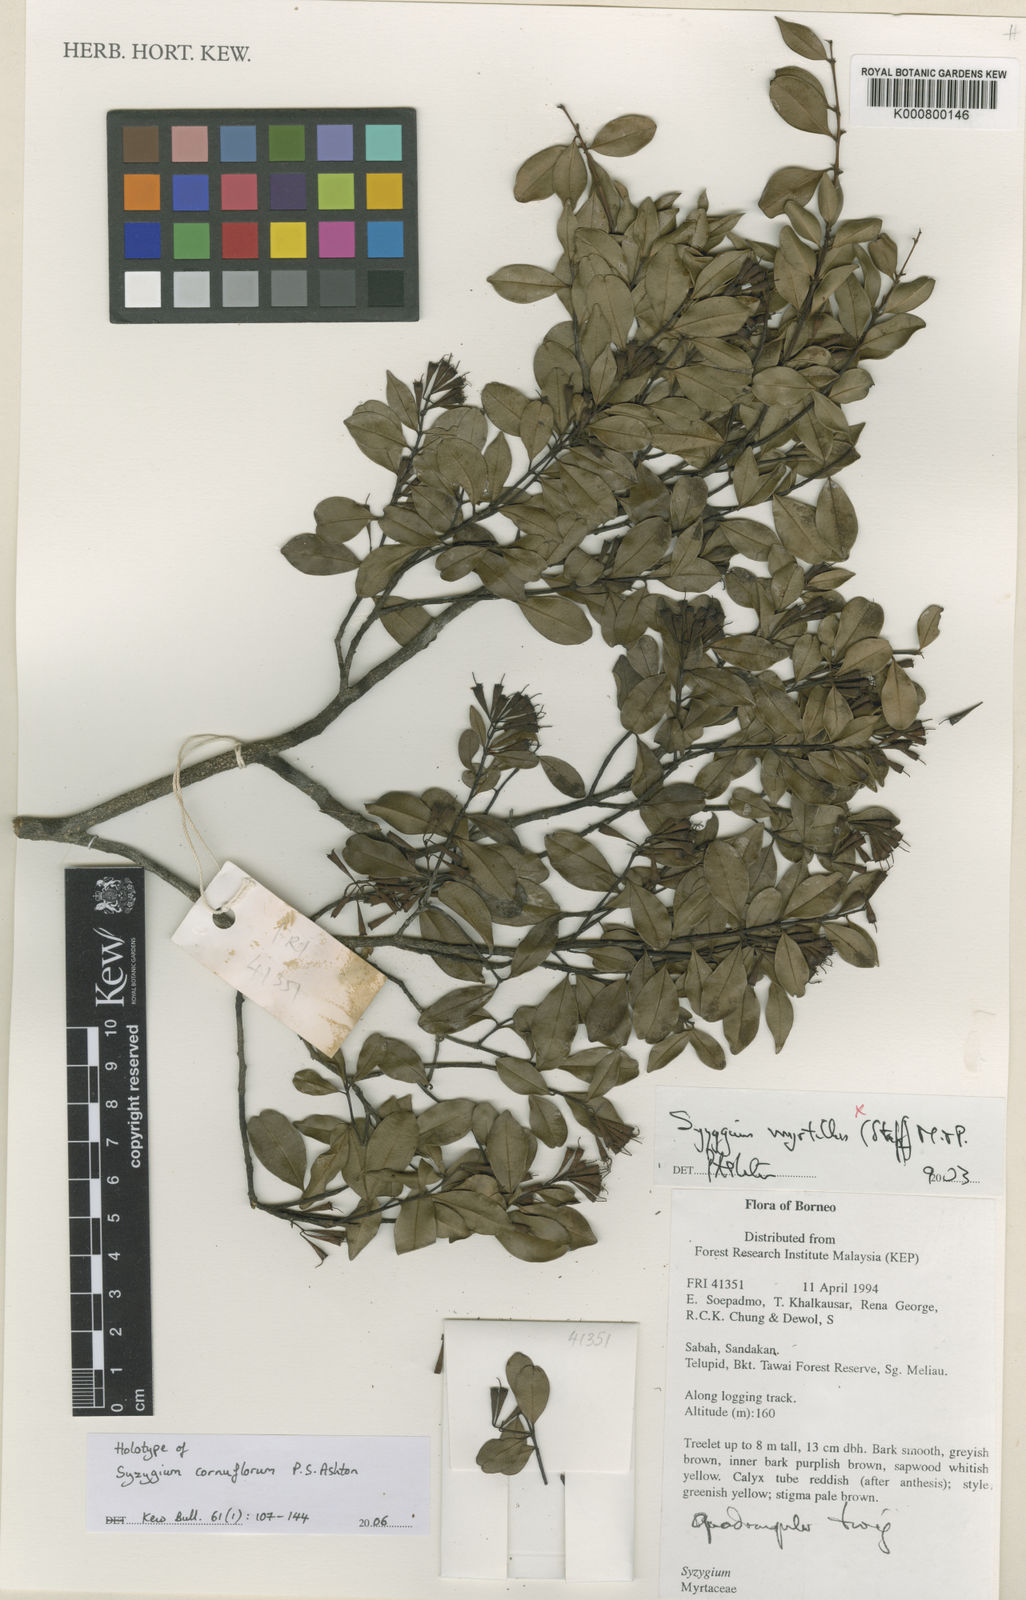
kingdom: Plantae
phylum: Tracheophyta
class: Magnoliopsida
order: Myrtales
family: Myrtaceae
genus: Syzygium
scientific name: Syzygium cornuflorum
